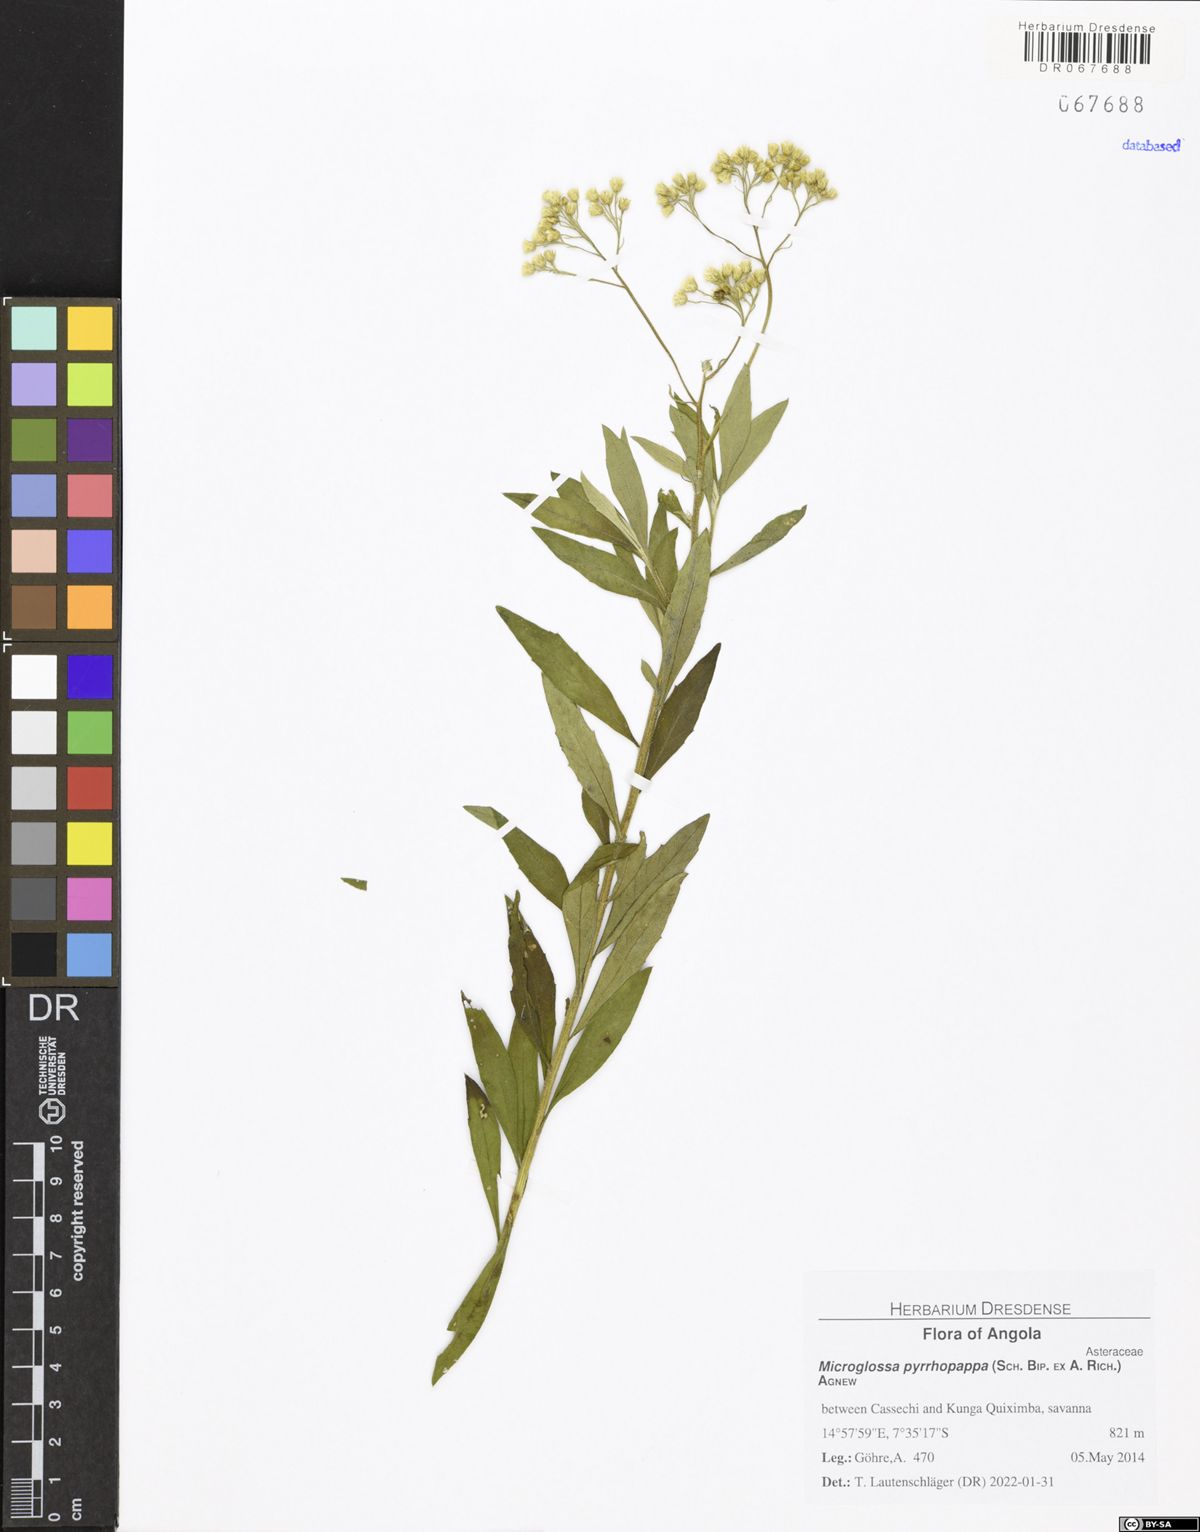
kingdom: Plantae
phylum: Tracheophyta
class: Magnoliopsida
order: Asterales
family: Asteraceae
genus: Microglossa
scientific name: Microglossa pyrrhopappa
